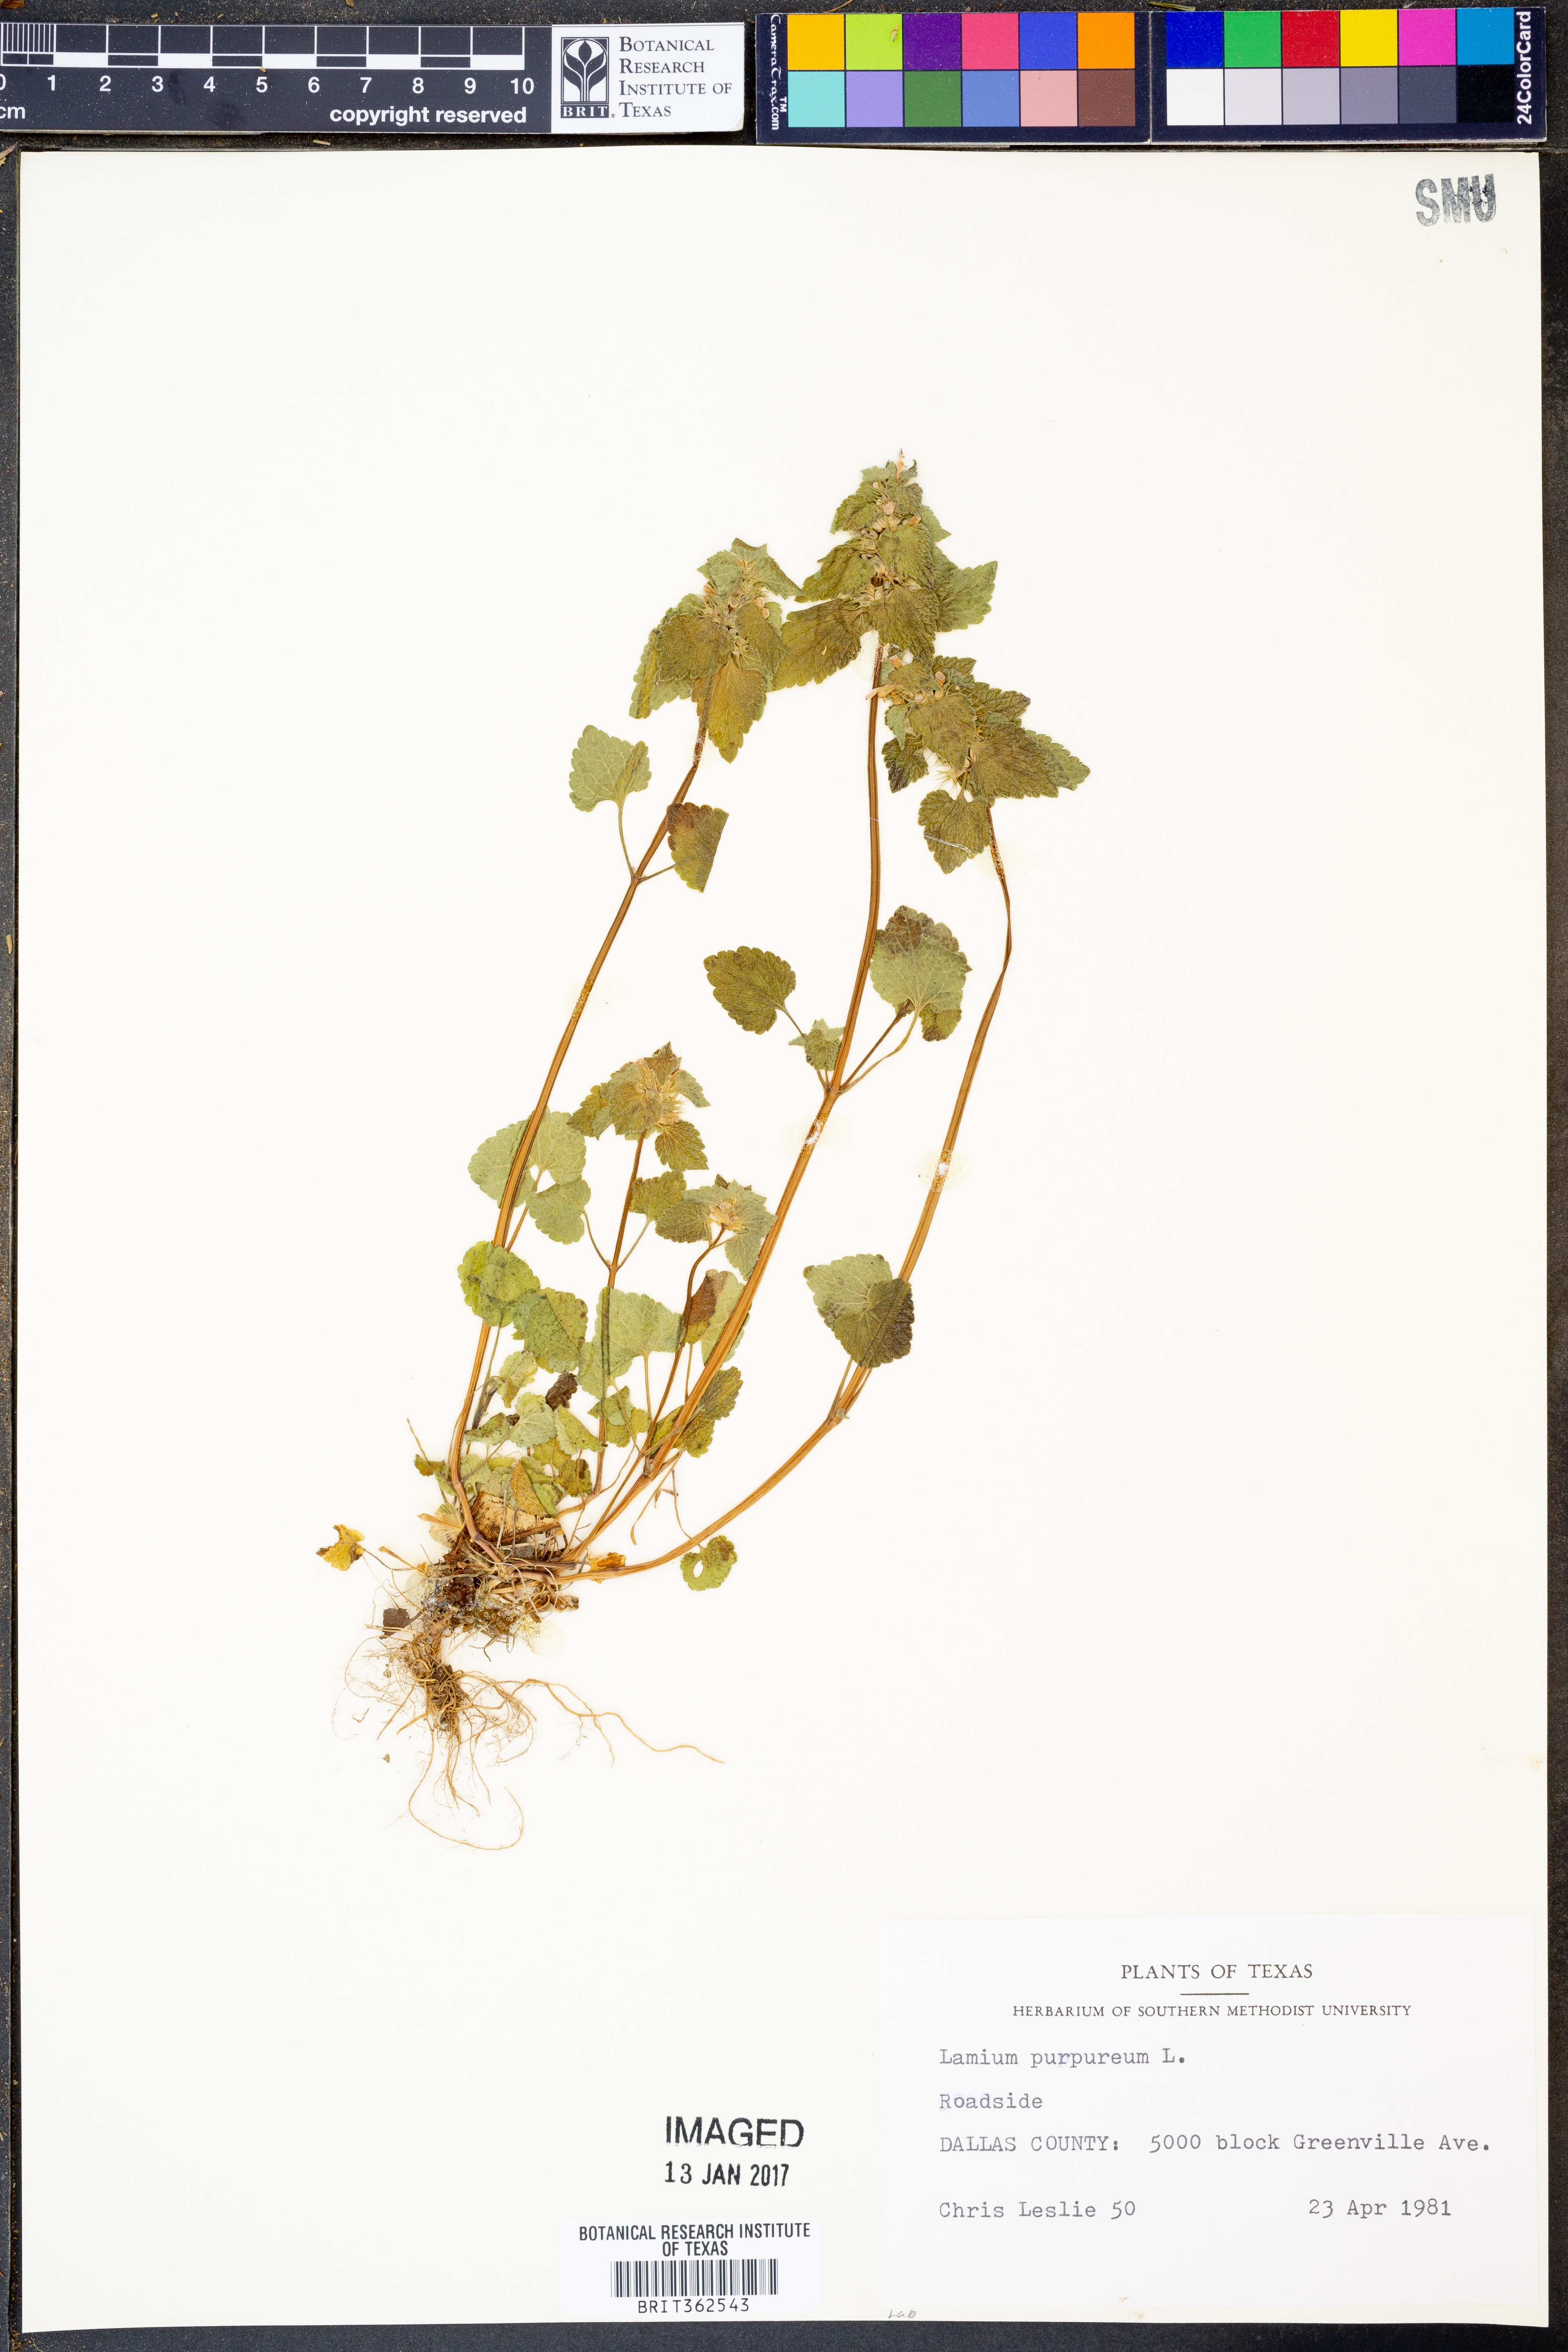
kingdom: Plantae
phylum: Tracheophyta
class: Magnoliopsida
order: Lamiales
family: Lamiaceae
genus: Lamium
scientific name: Lamium purpureum
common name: Red dead-nettle
